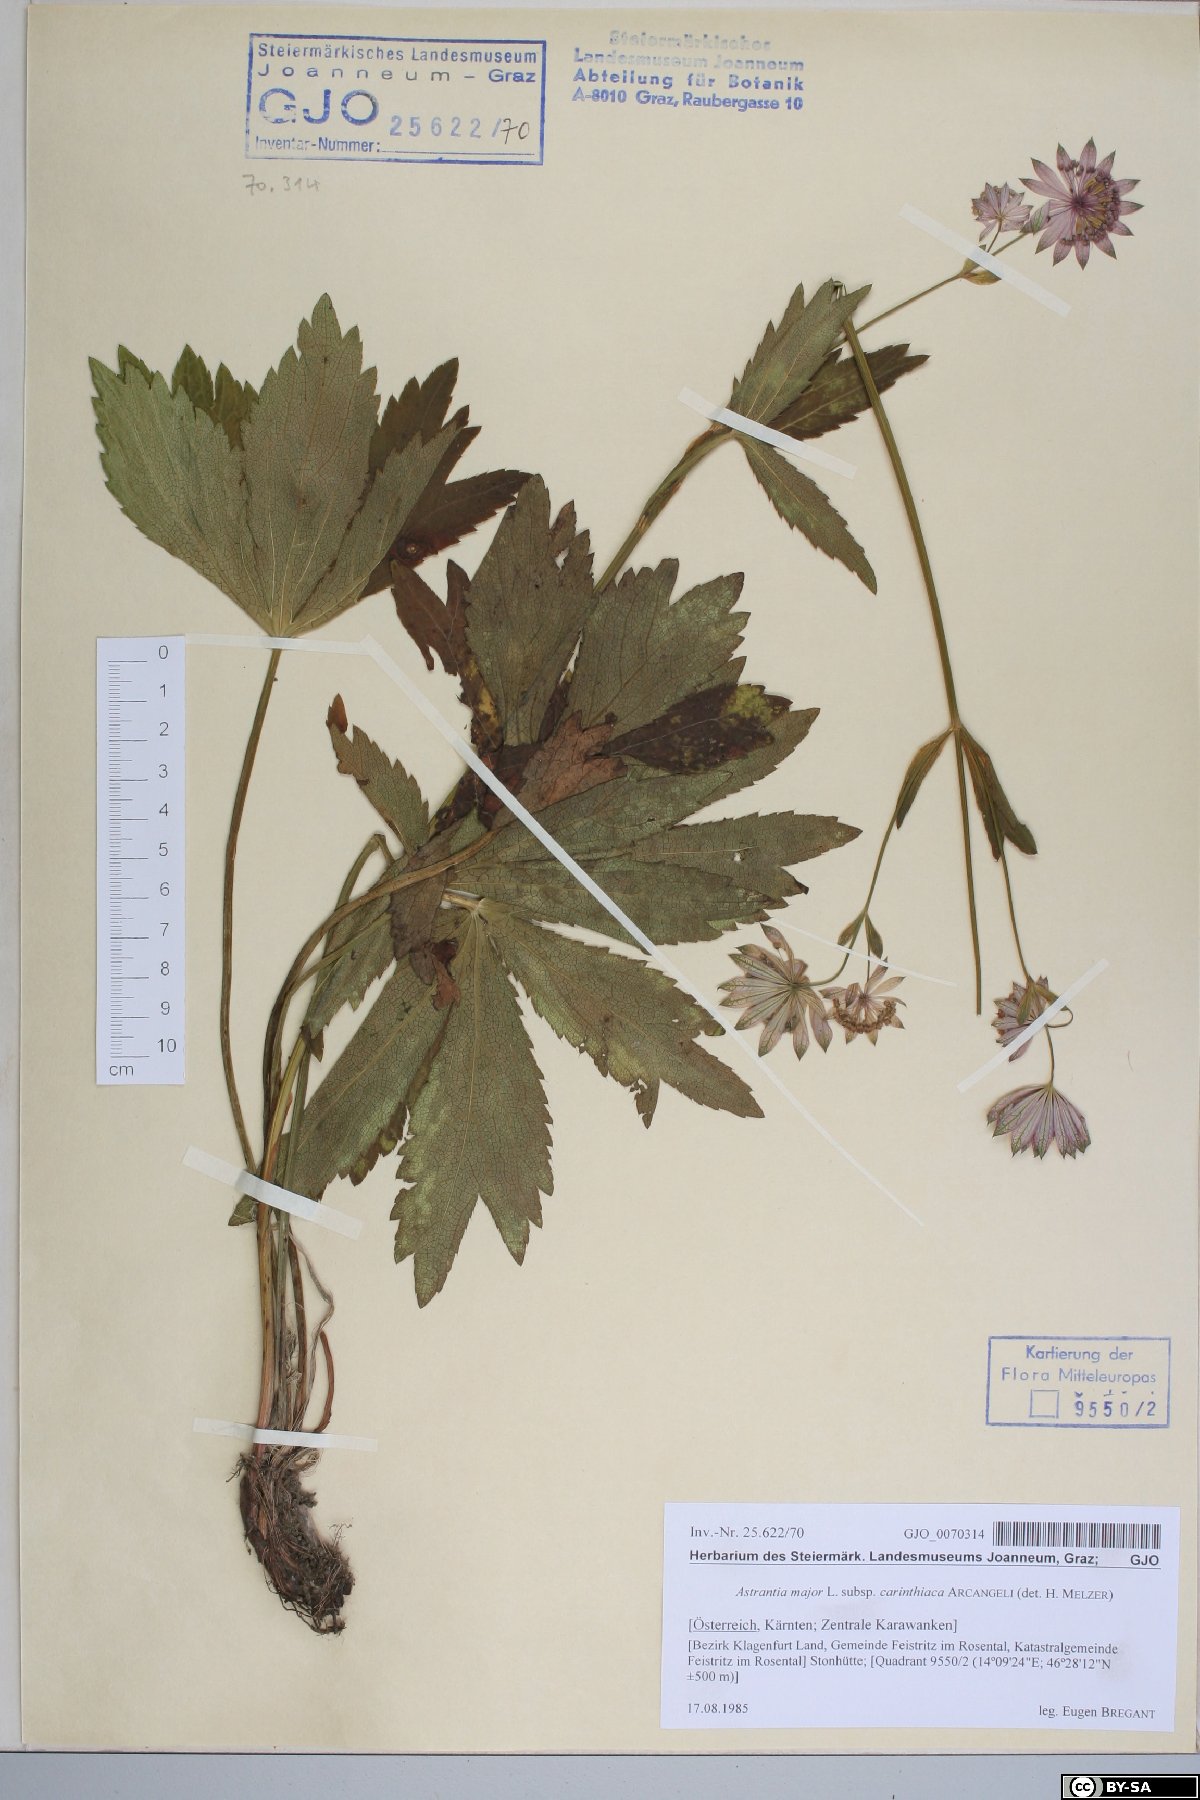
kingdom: Plantae
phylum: Tracheophyta
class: Magnoliopsida
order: Apiales
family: Apiaceae
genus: Astrantia
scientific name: Astrantia major
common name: Greater masterwort
